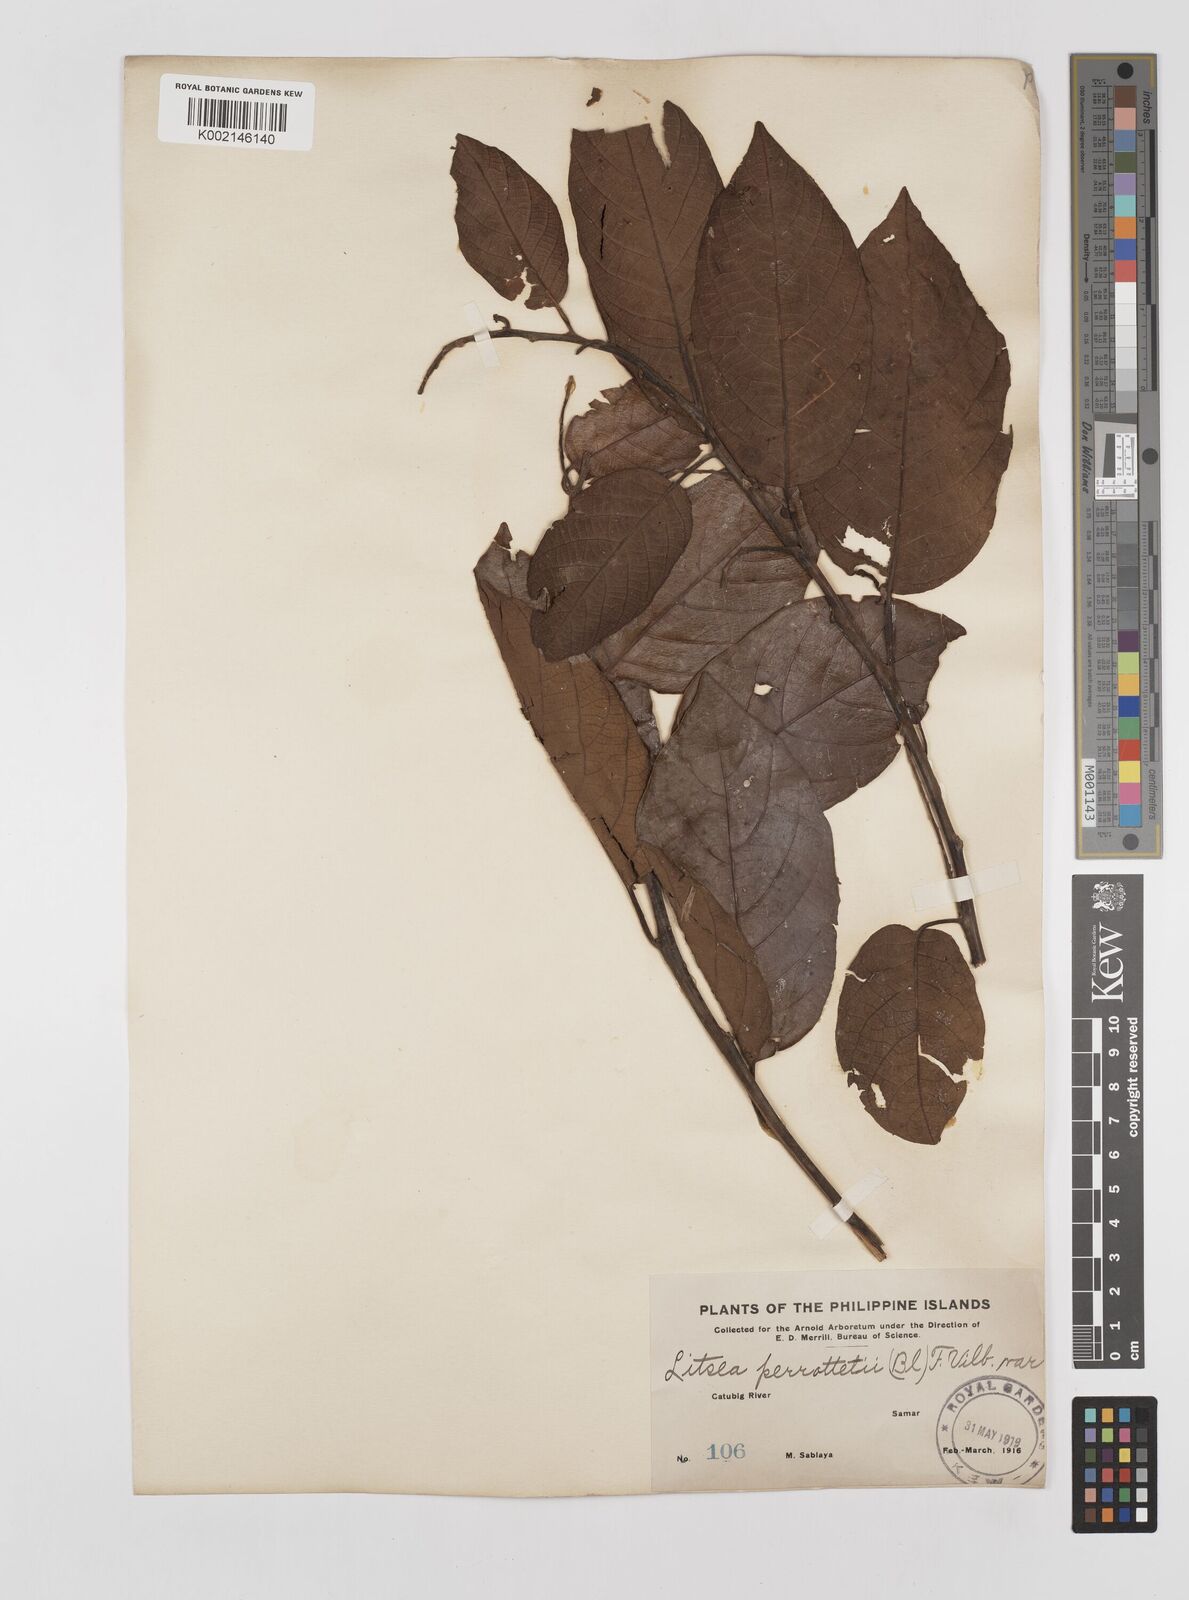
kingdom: Plantae
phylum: Tracheophyta
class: Magnoliopsida
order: Laurales
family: Lauraceae
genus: Litsea
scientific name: Litsea cordata
